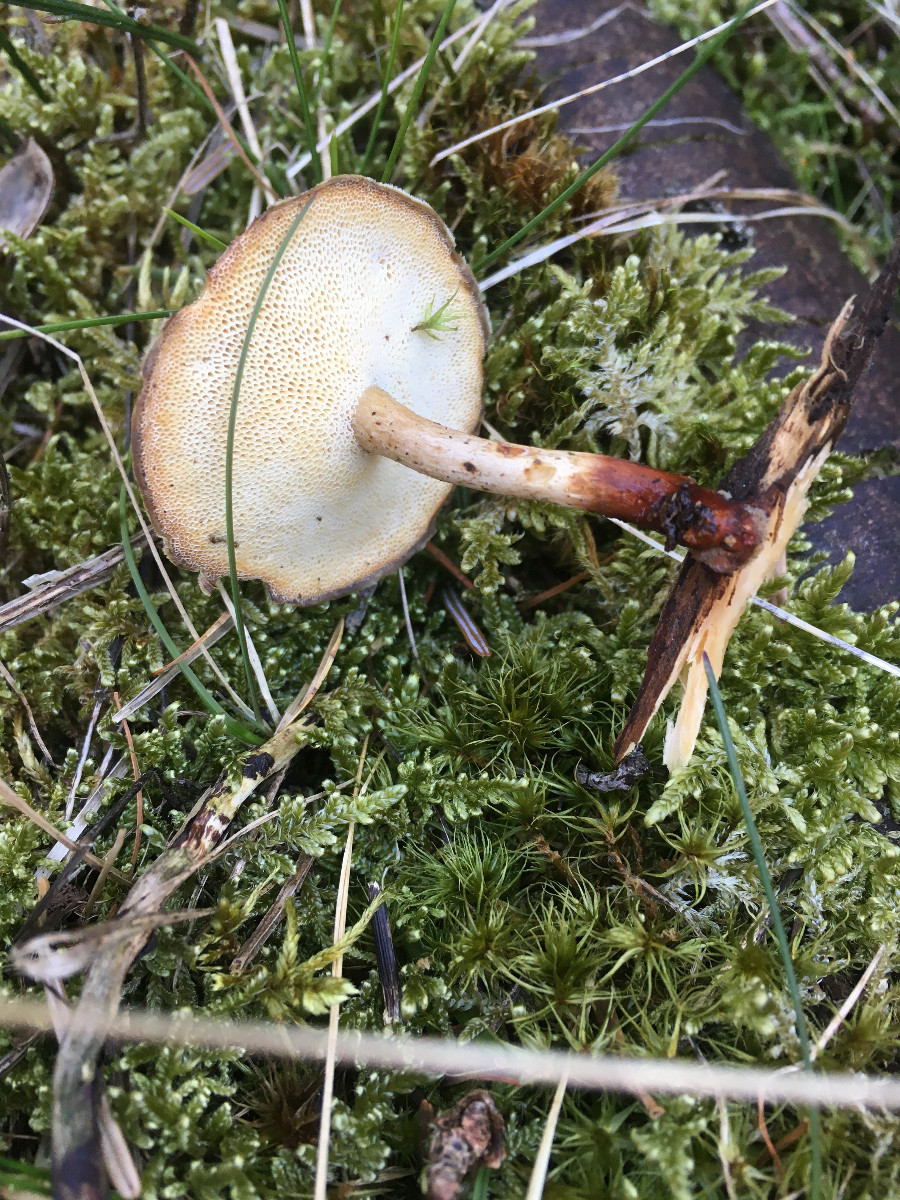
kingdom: Fungi
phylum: Basidiomycota
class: Agaricomycetes
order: Polyporales
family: Polyporaceae
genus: Lentinus
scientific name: Lentinus brumalis
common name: vinter-stilkporesvamp
